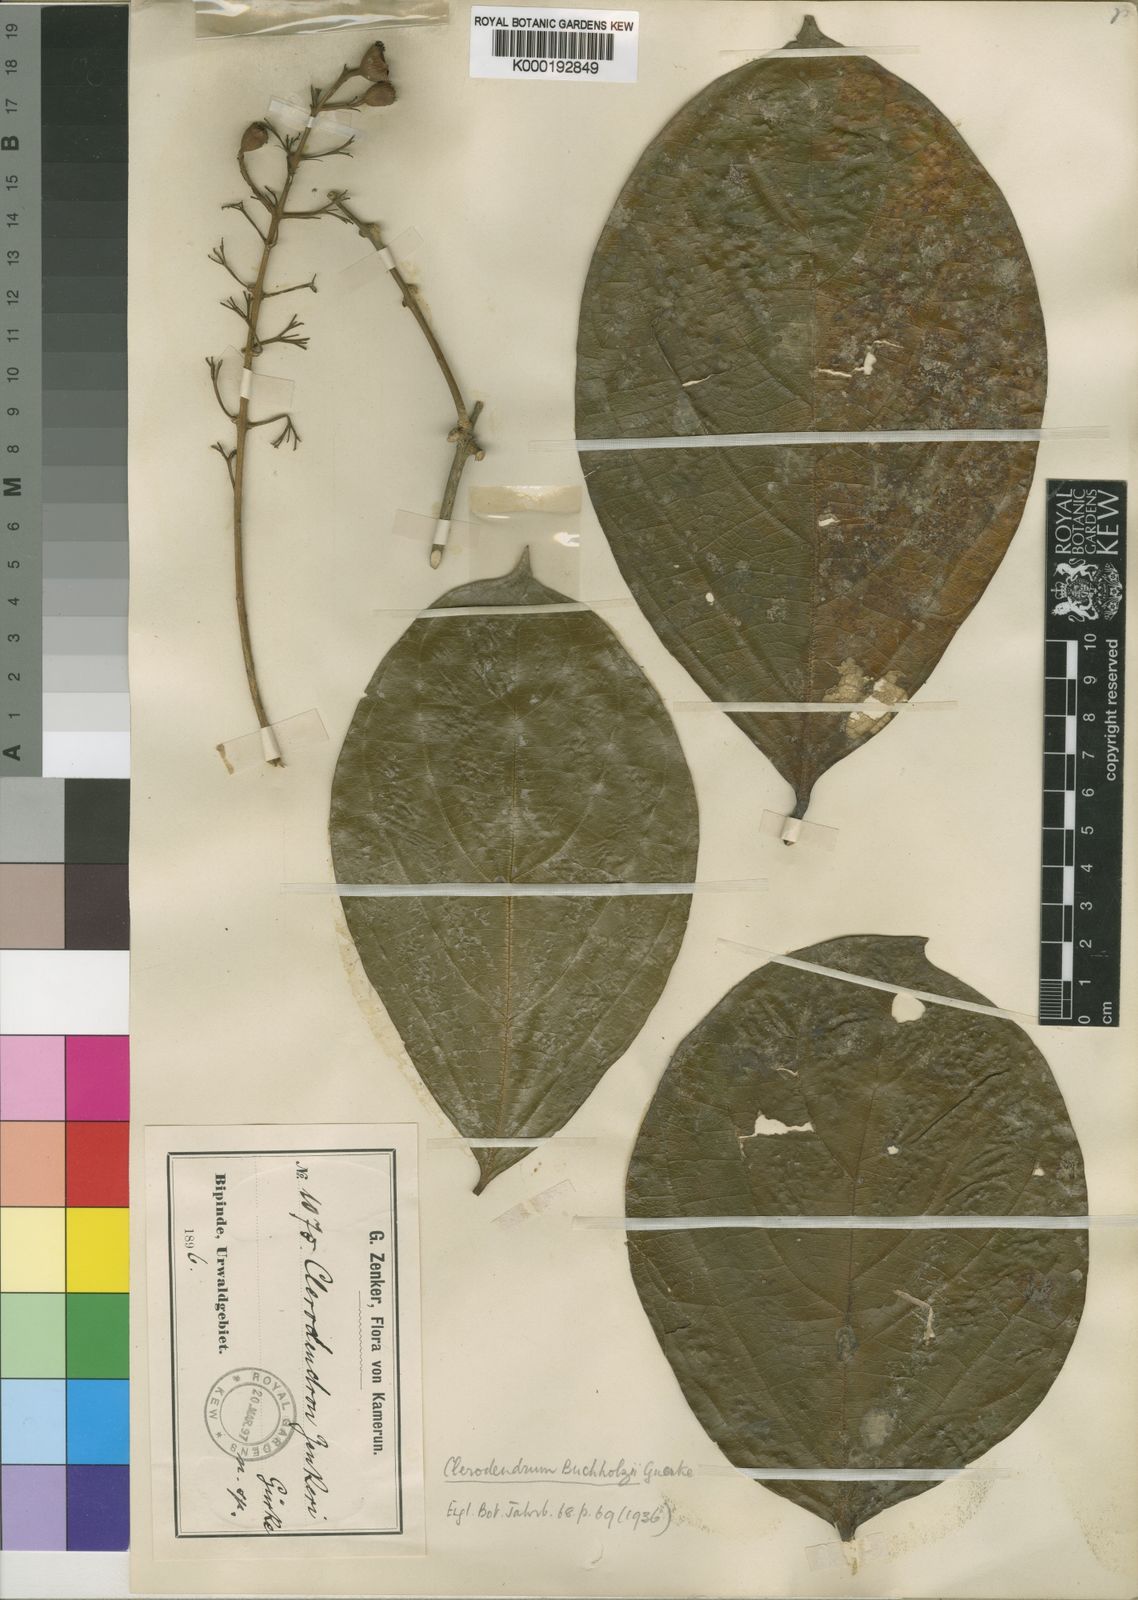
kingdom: Plantae
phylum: Tracheophyta
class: Magnoliopsida
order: Lamiales
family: Lamiaceae
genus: Clerodendrum
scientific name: Clerodendrum
